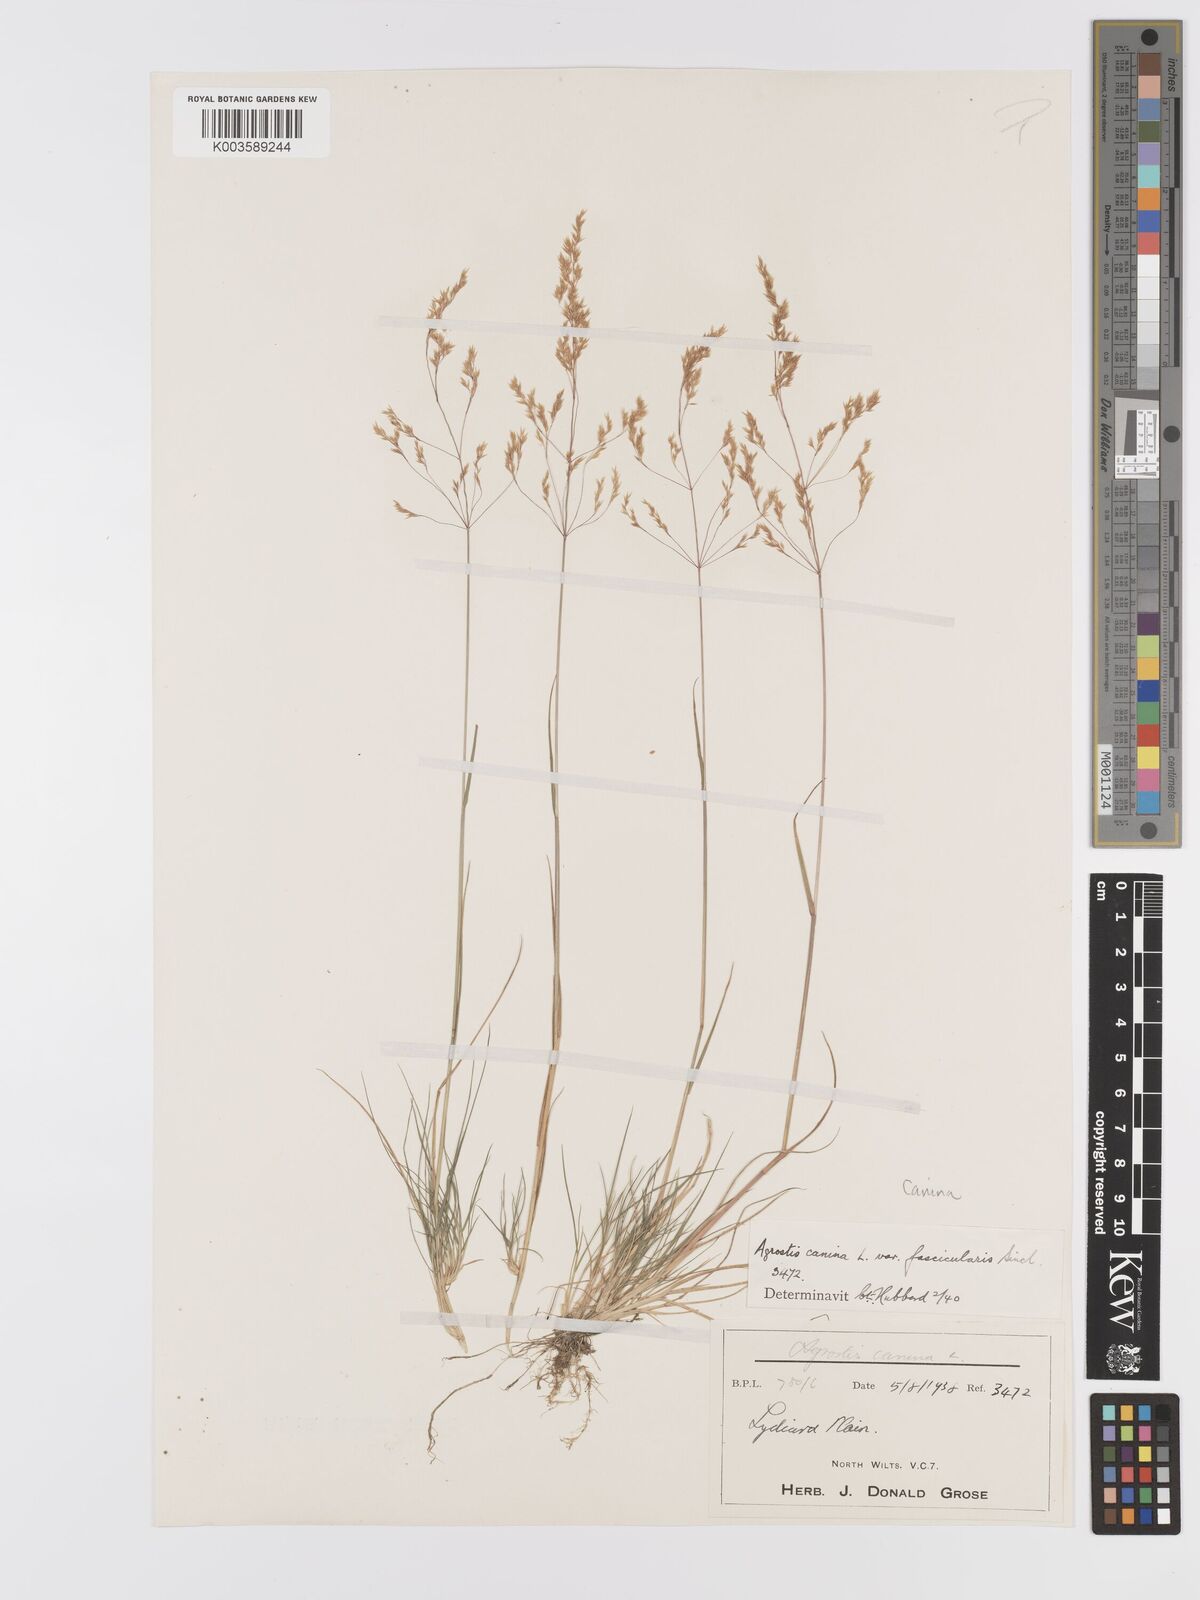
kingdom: Plantae
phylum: Tracheophyta
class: Liliopsida
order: Poales
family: Poaceae
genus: Agrostis
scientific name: Agrostis canina
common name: Velvet bent
